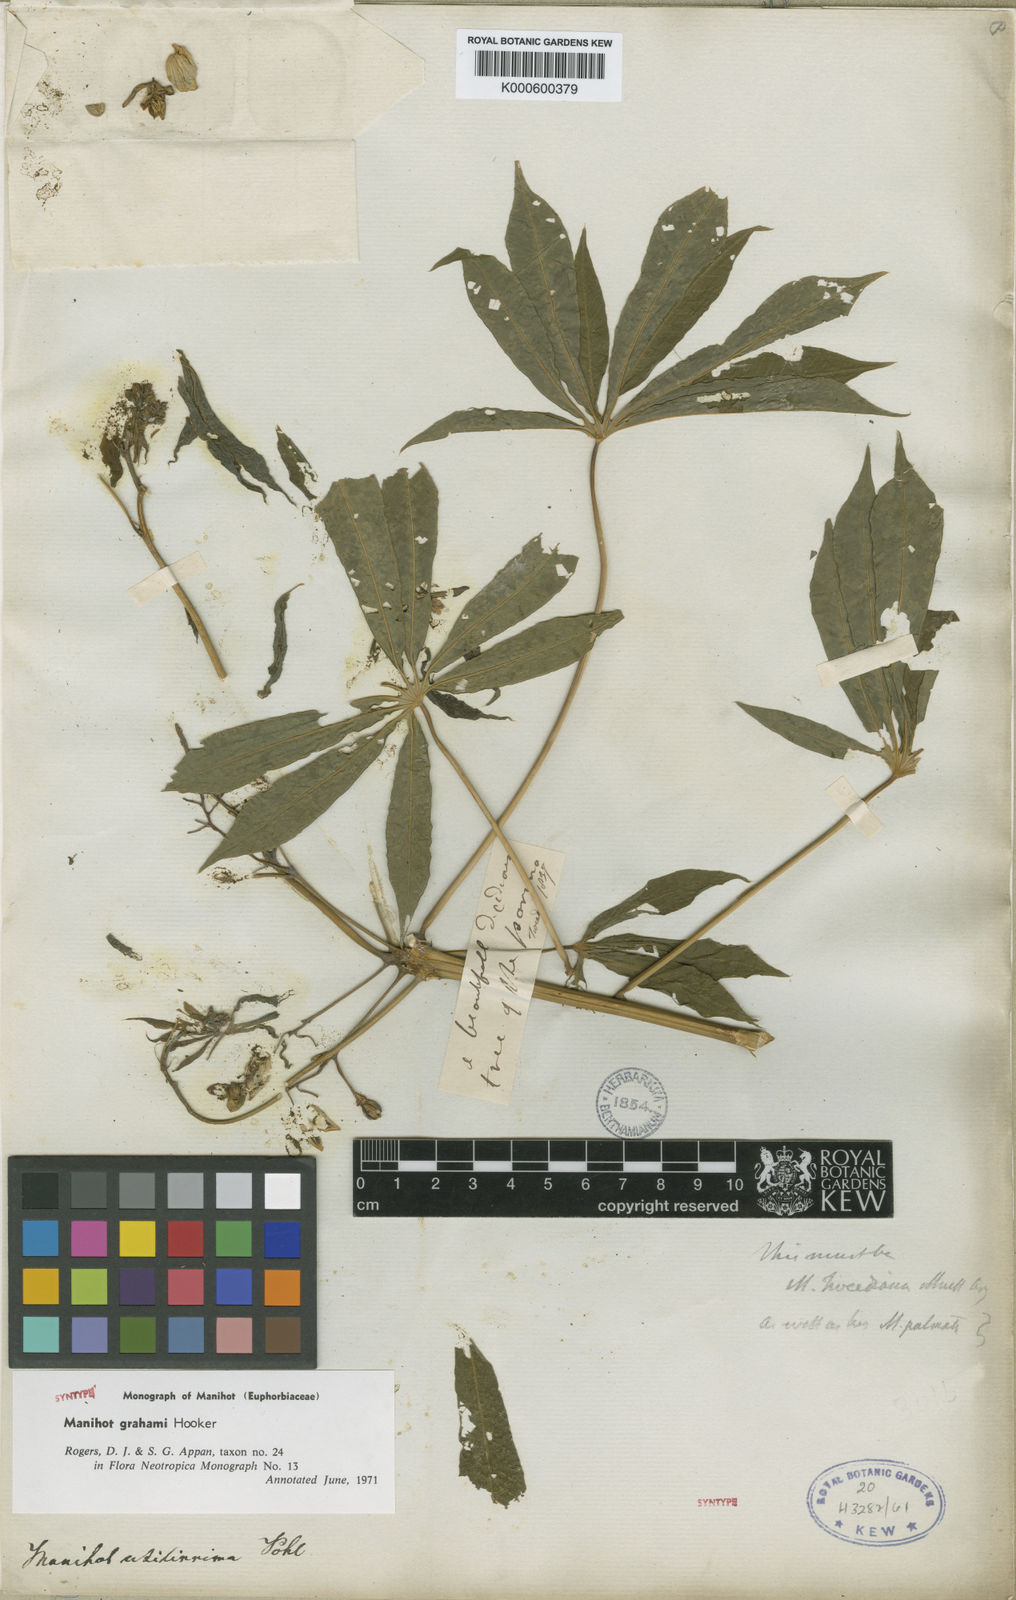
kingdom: Plantae
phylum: Tracheophyta
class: Magnoliopsida
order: Malpighiales
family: Euphorbiaceae
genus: Manihot
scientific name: Manihot grahamii
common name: Graham's manihot
